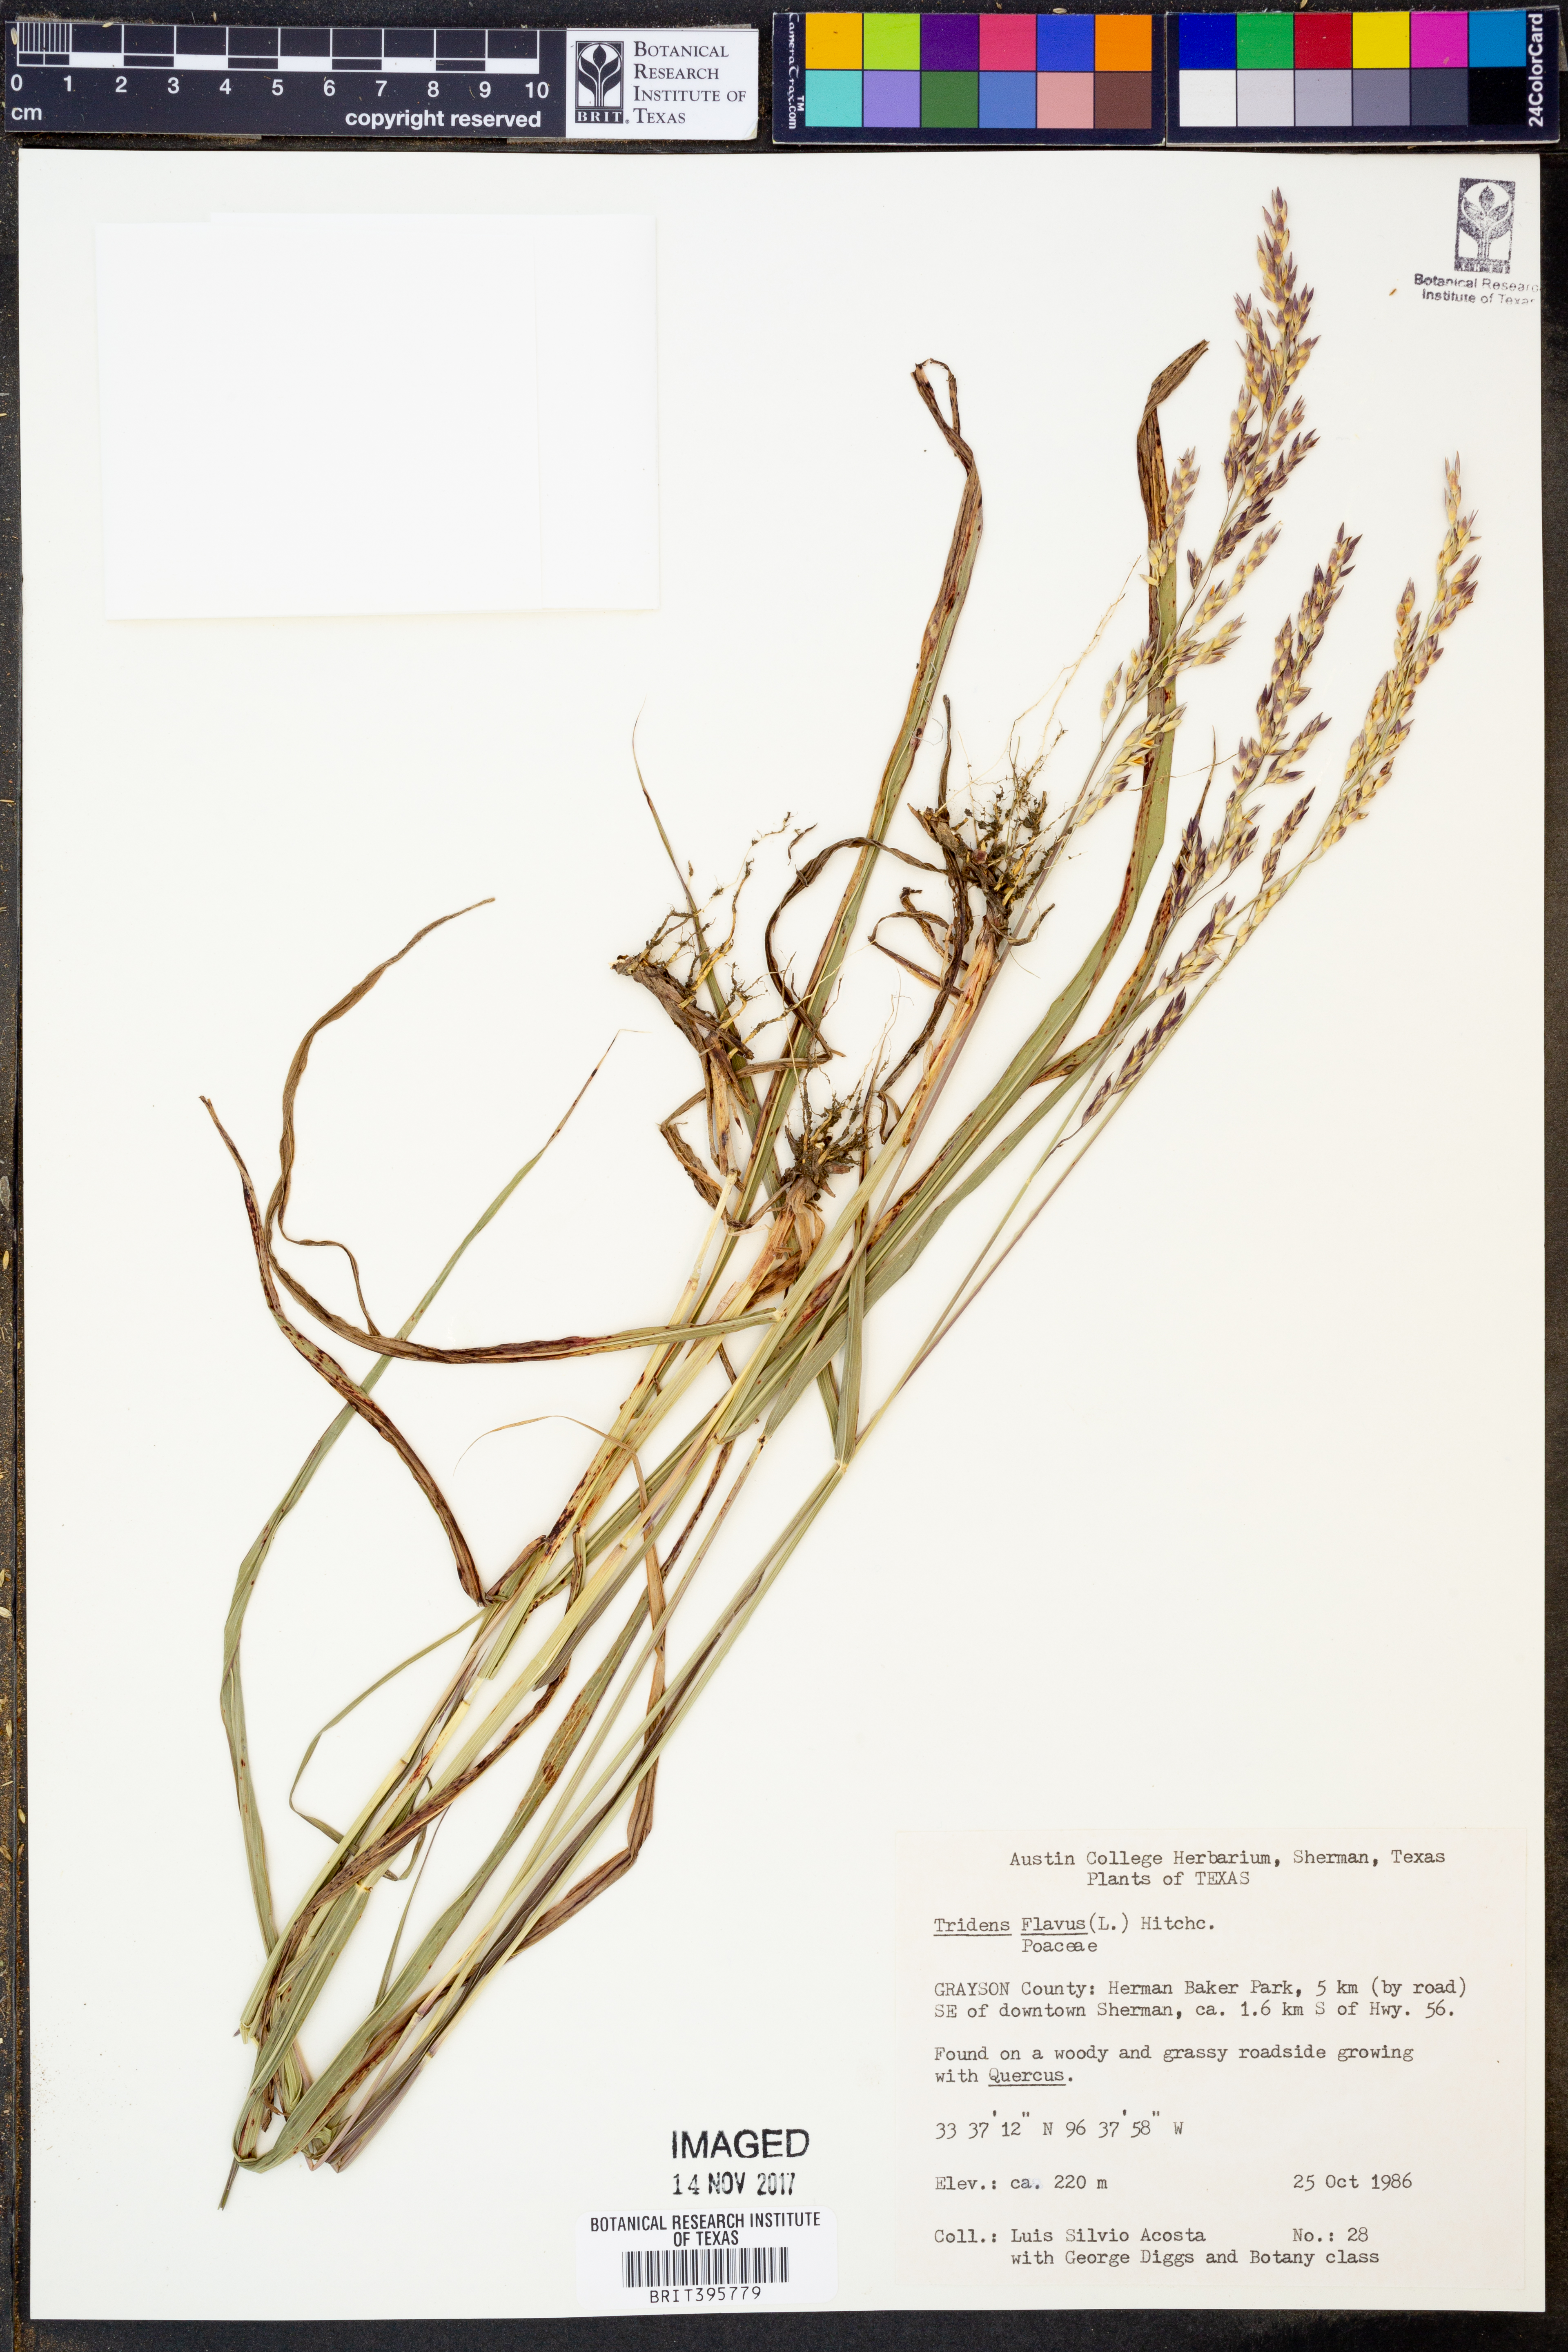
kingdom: Plantae
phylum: Tracheophyta
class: Liliopsida
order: Poales
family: Poaceae
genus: Tridens
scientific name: Tridens flavus
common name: Purpletop
